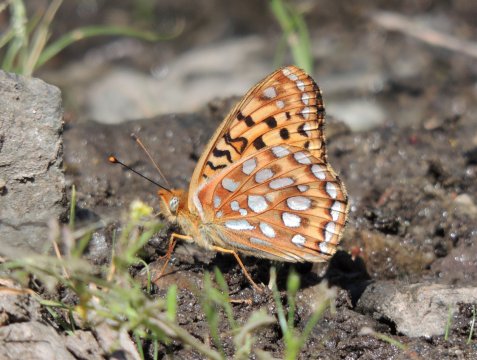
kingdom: Animalia
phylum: Arthropoda
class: Insecta
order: Lepidoptera
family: Nymphalidae
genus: Speyeria
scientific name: Speyeria zerene
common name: Zerene Fritillary
